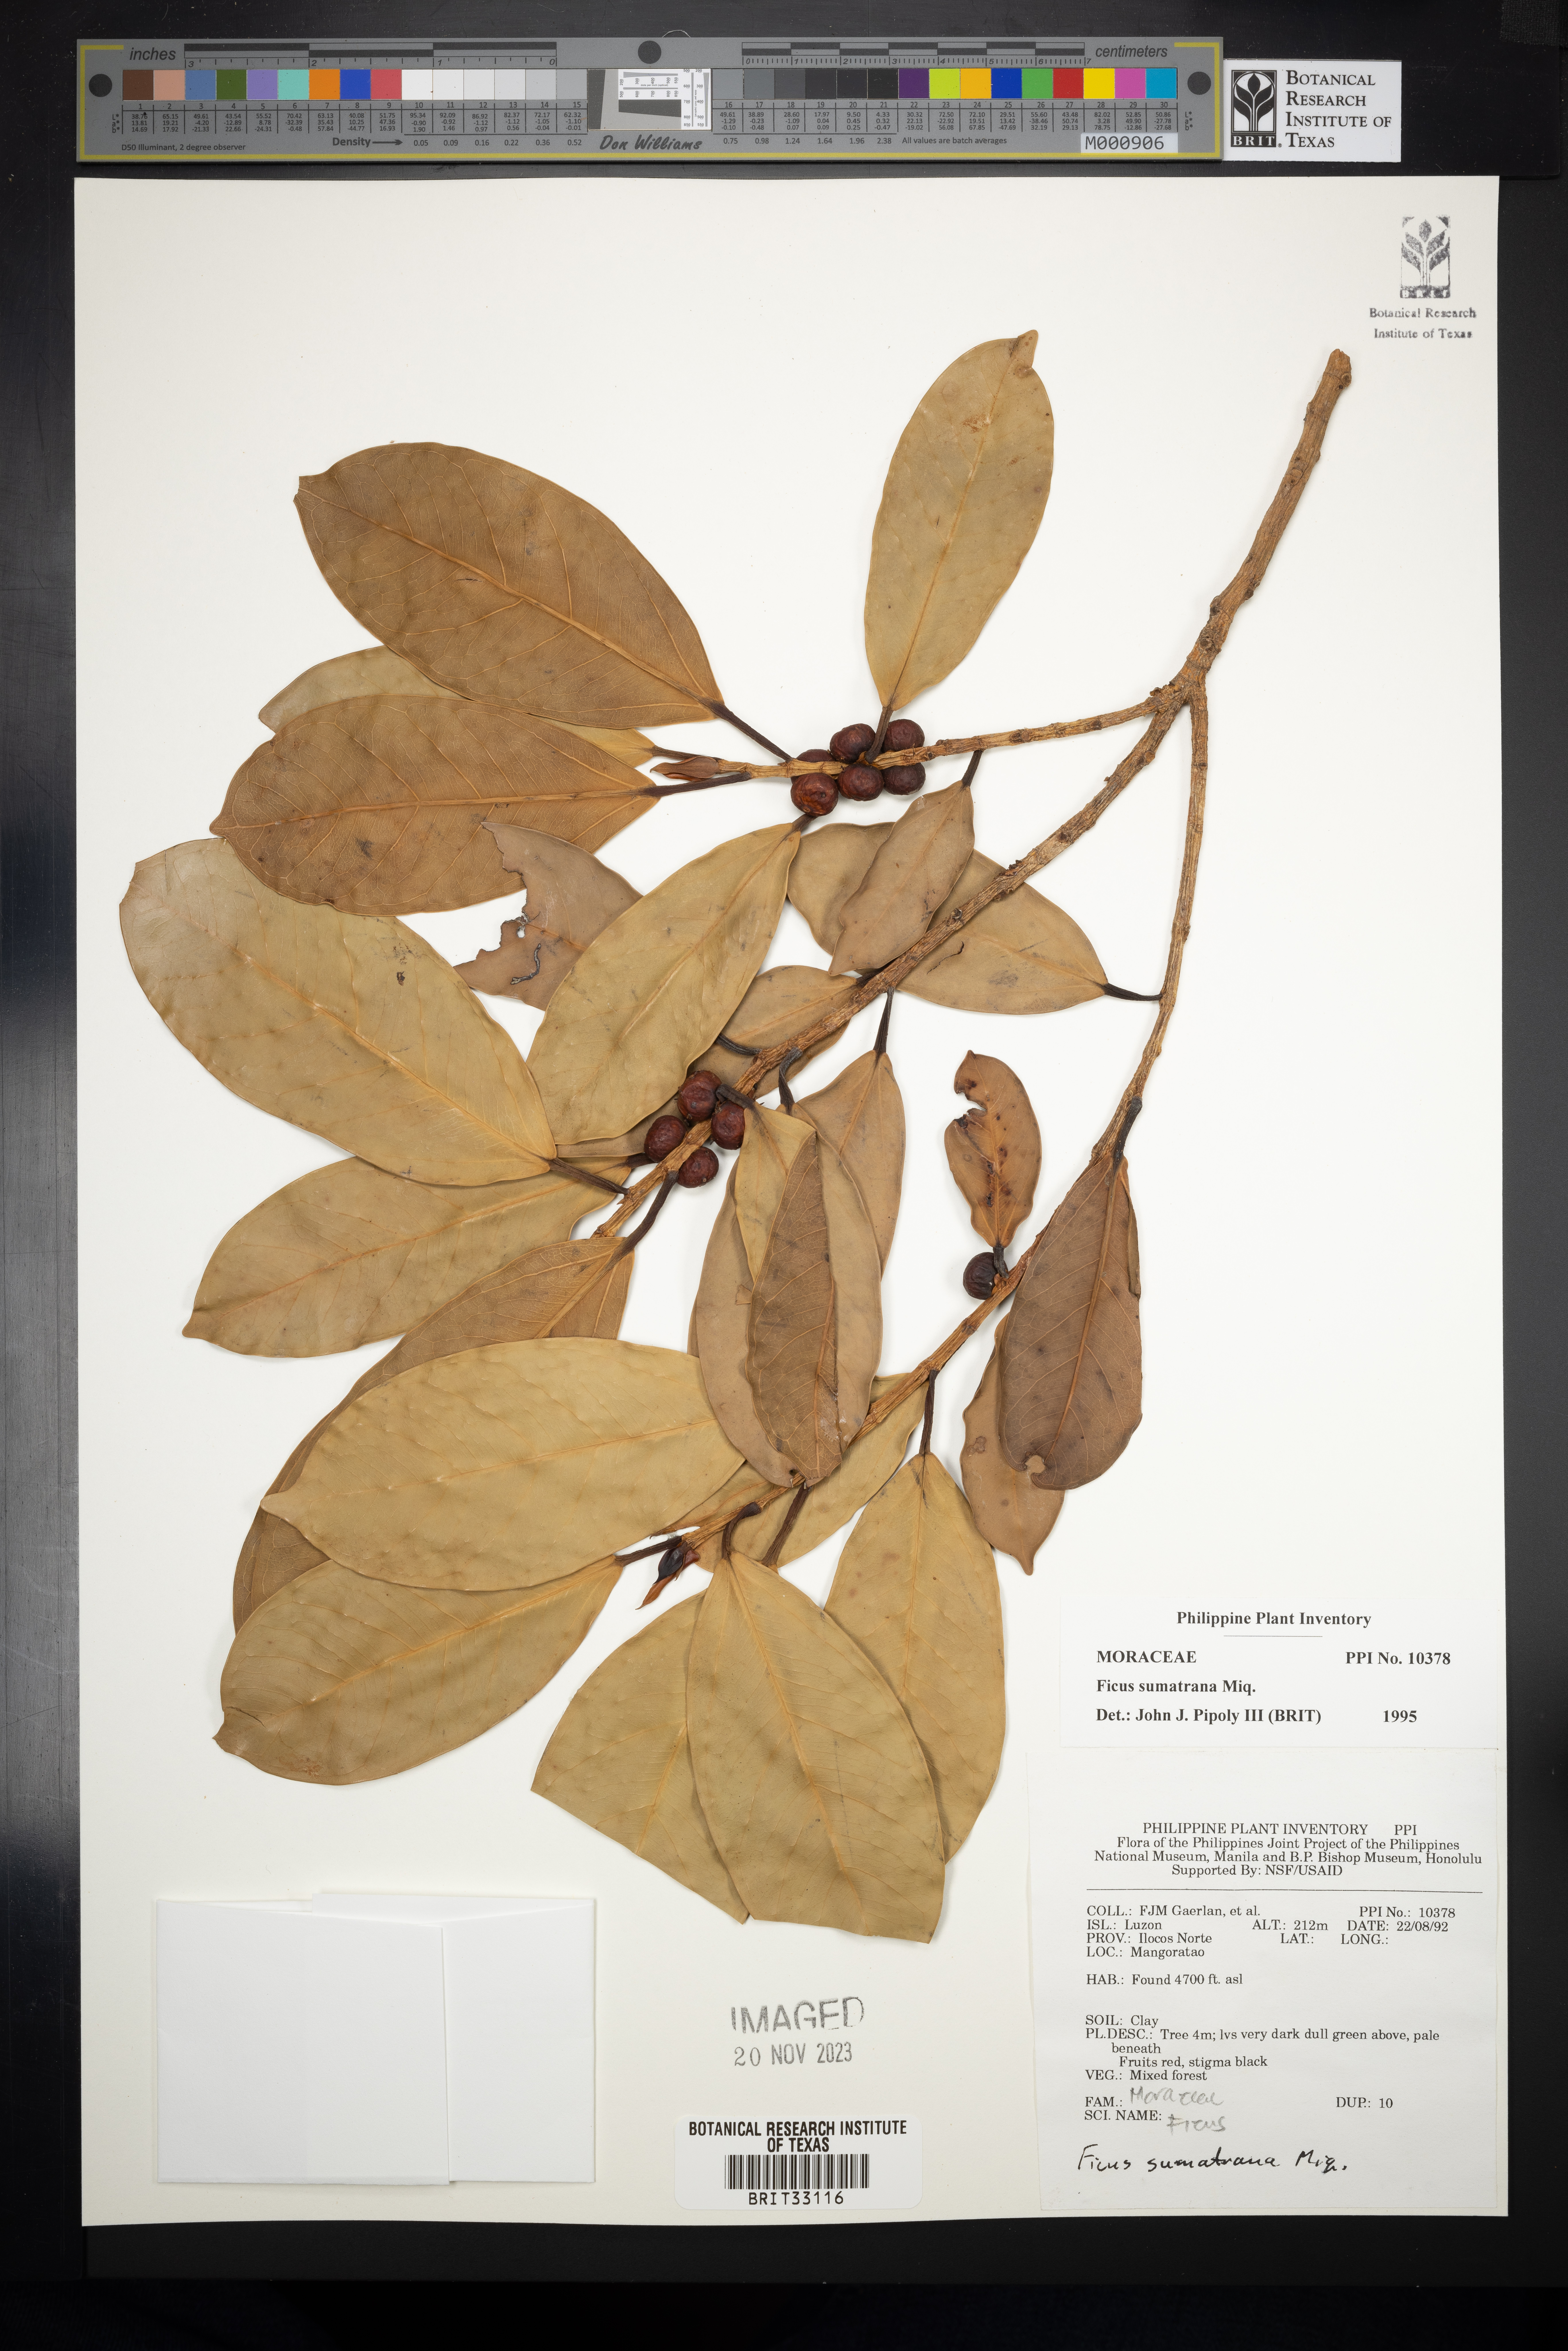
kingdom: Plantae
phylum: Tracheophyta
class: Magnoliopsida
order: Rosales
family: Moraceae
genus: Ficus
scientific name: Ficus sumatrana
